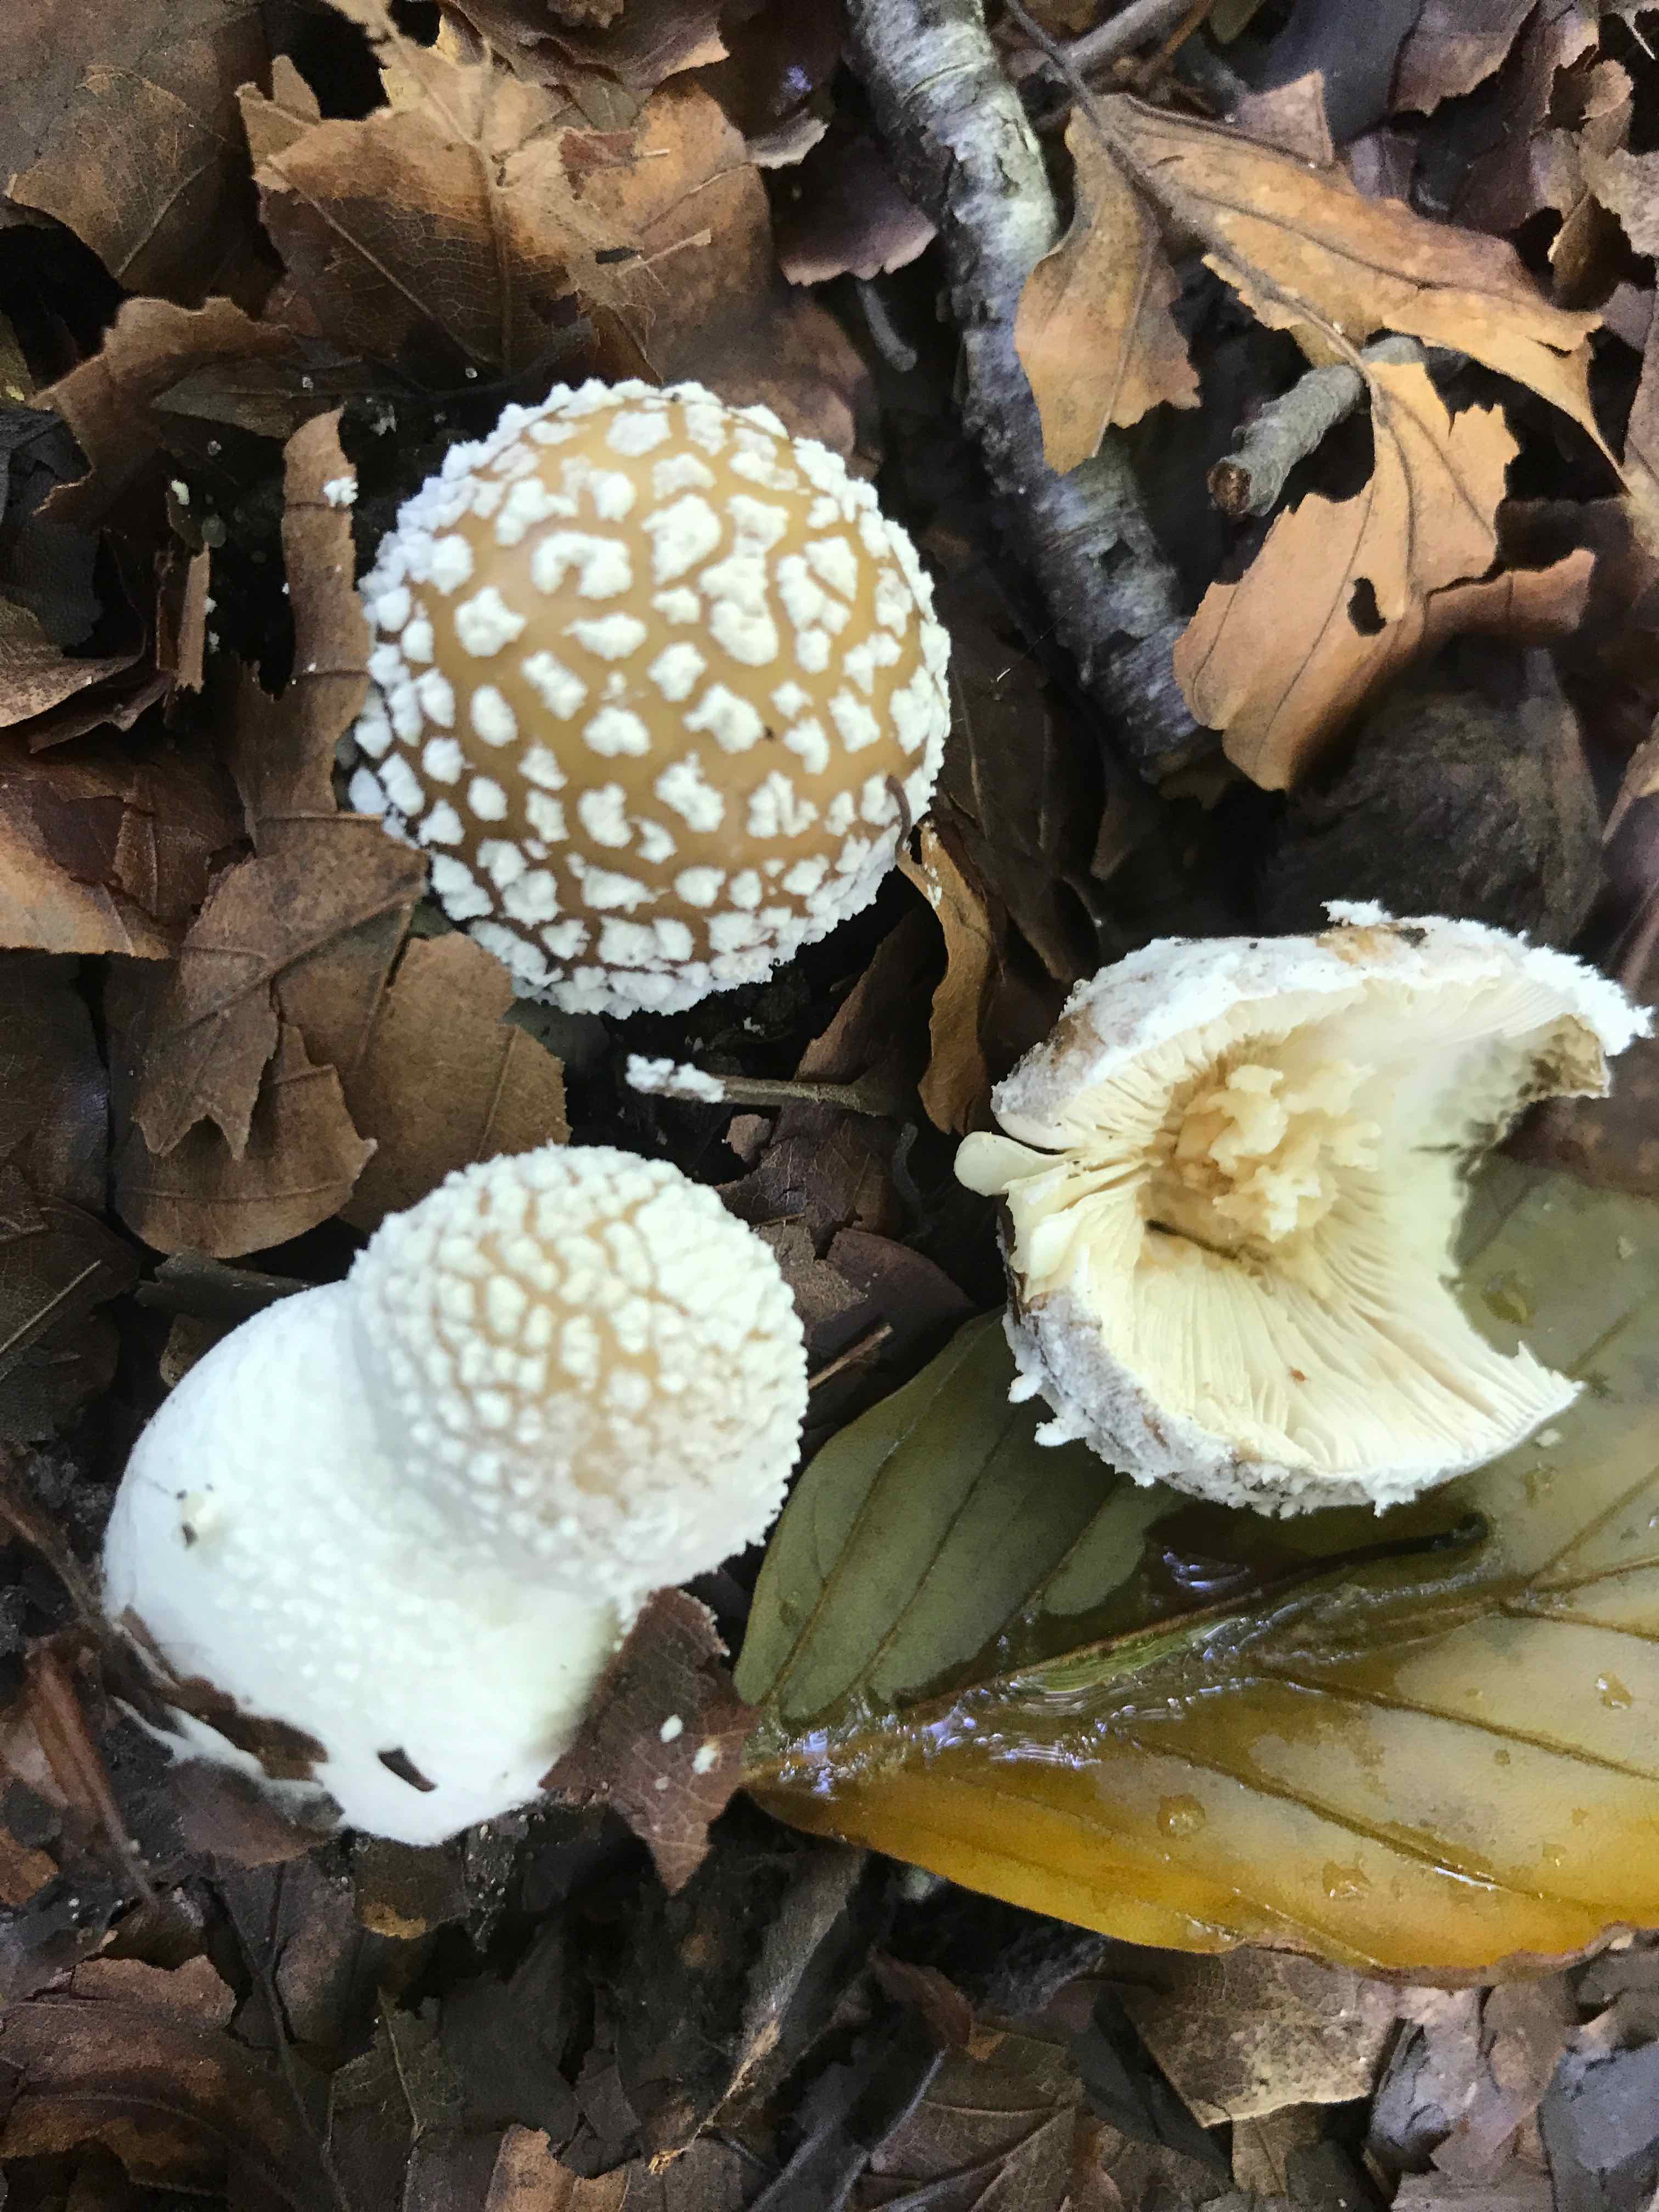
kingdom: Fungi
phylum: Basidiomycota
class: Agaricomycetes
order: Agaricales
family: Amanitaceae
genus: Amanita
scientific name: Amanita pantherina
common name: panter-fluesvamp
